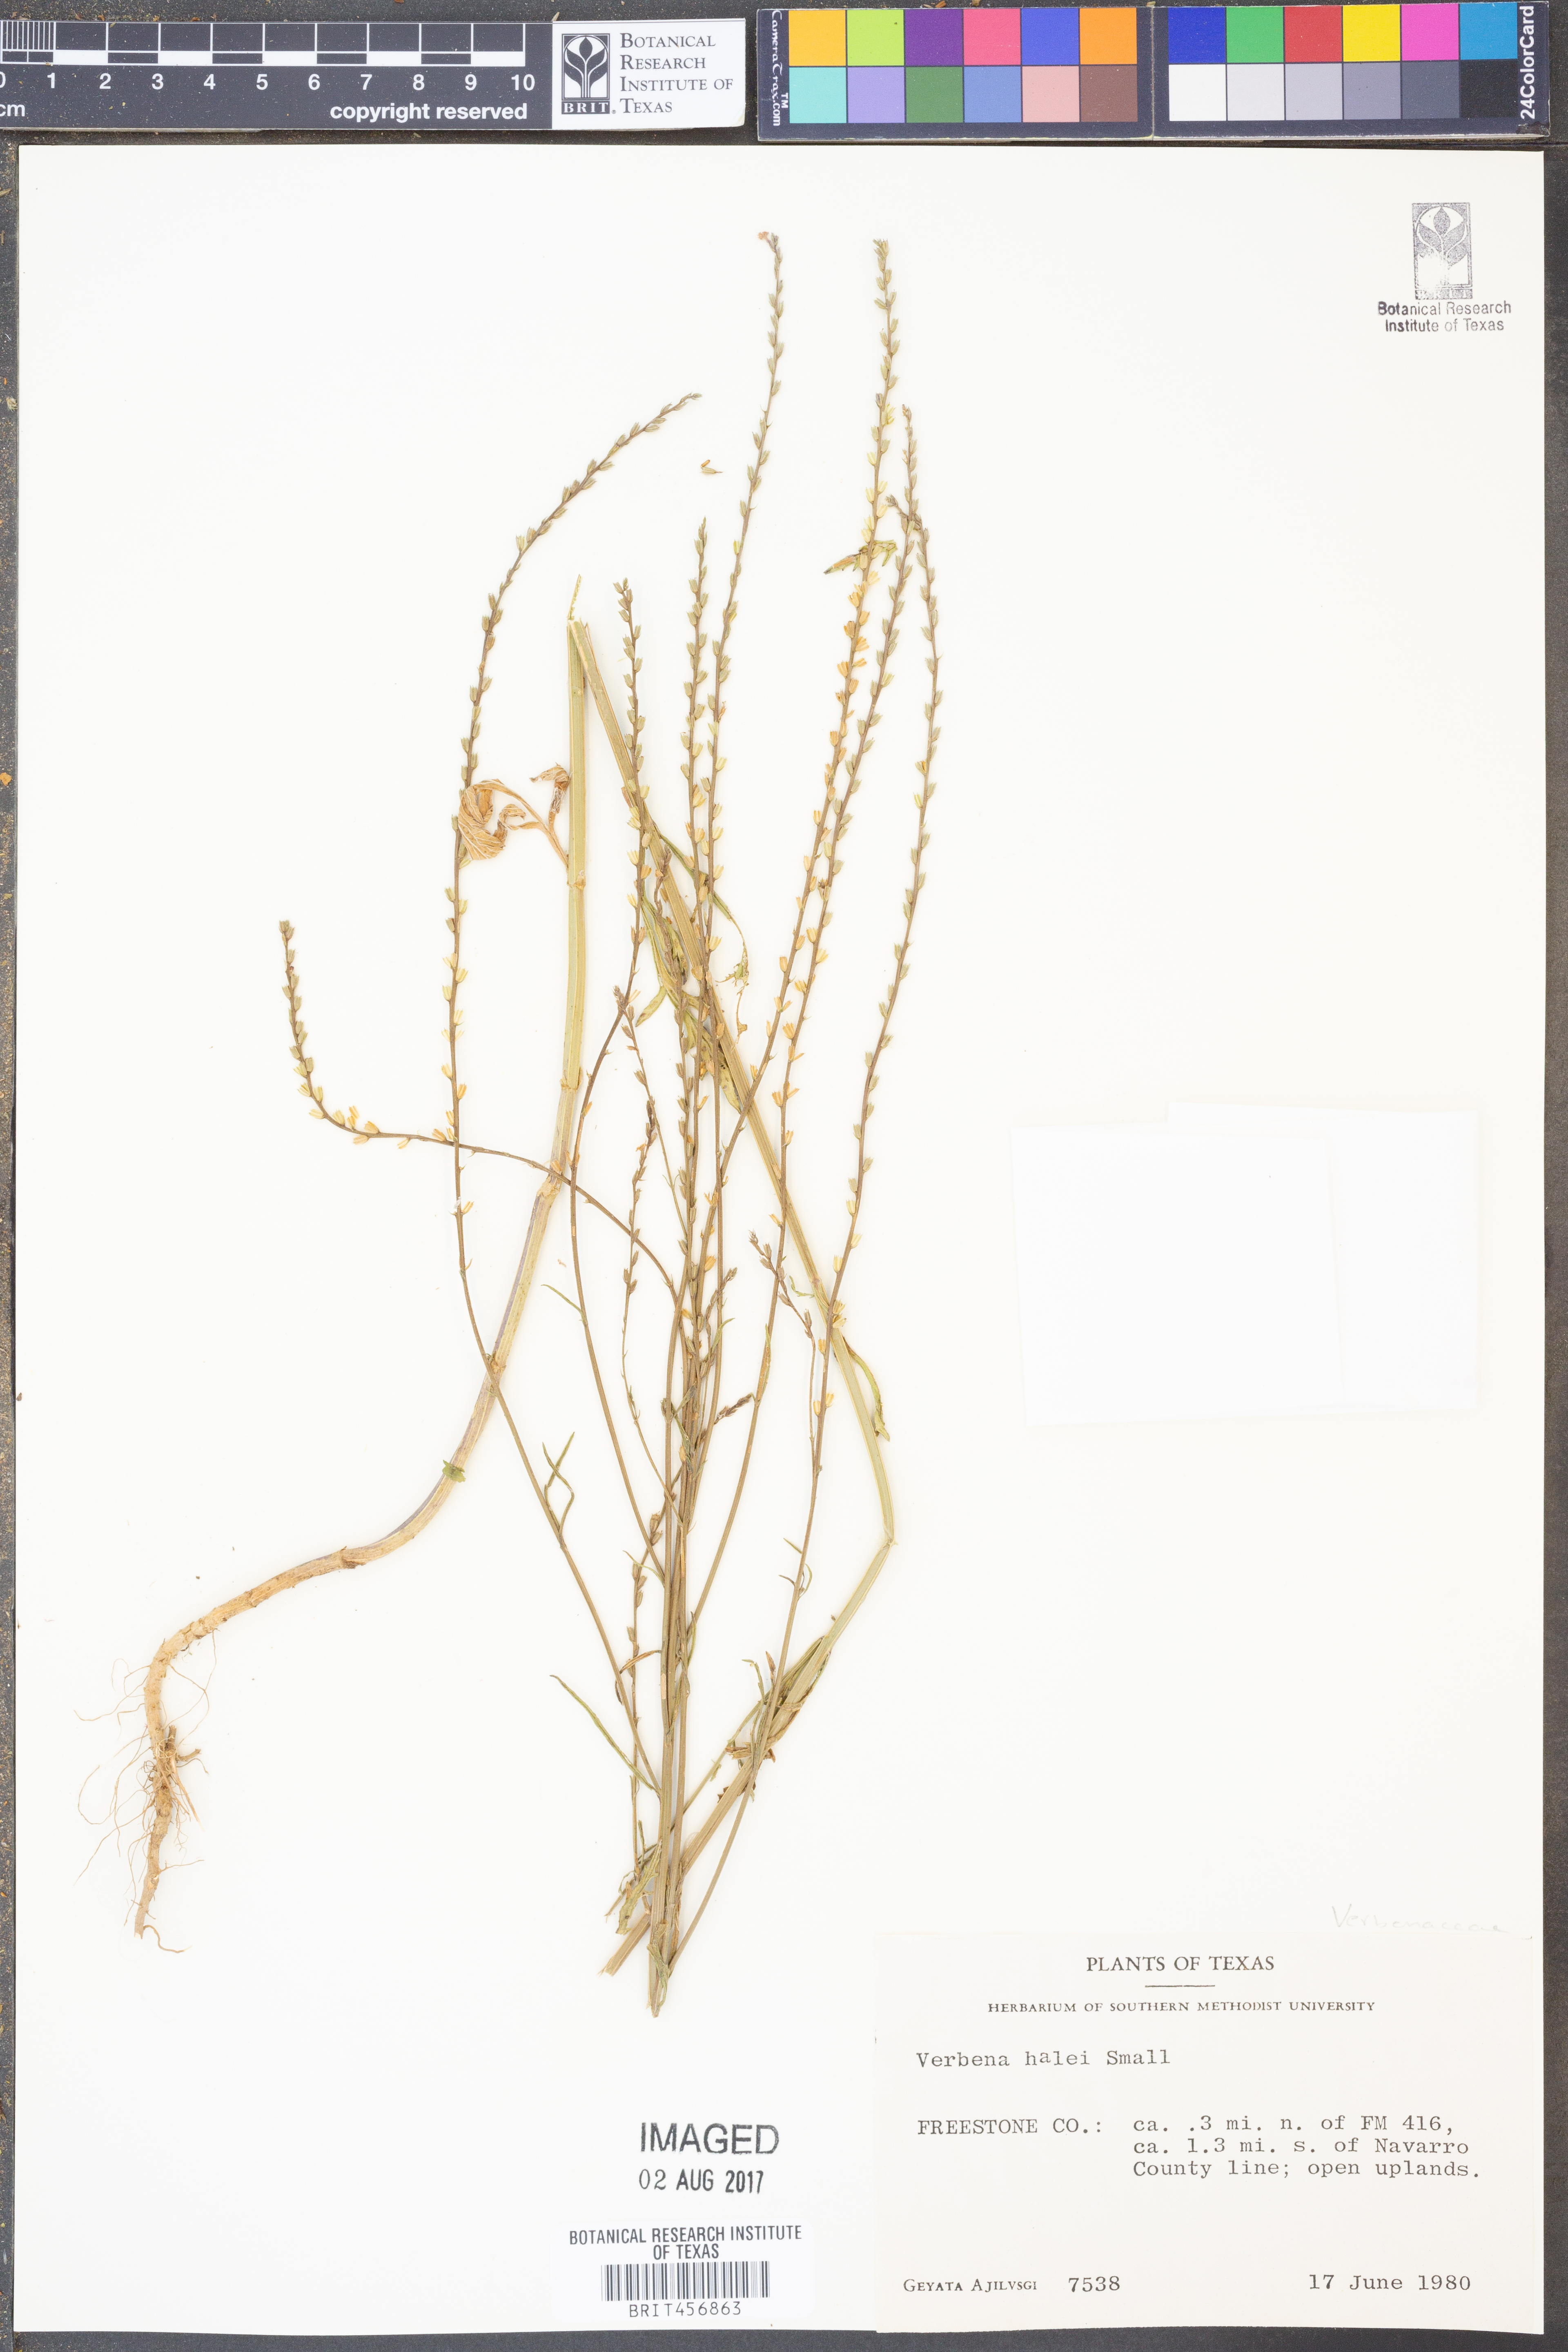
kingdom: Plantae
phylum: Tracheophyta
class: Magnoliopsida
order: Lamiales
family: Verbenaceae
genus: Verbena
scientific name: Verbena halei
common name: Texas vervain
